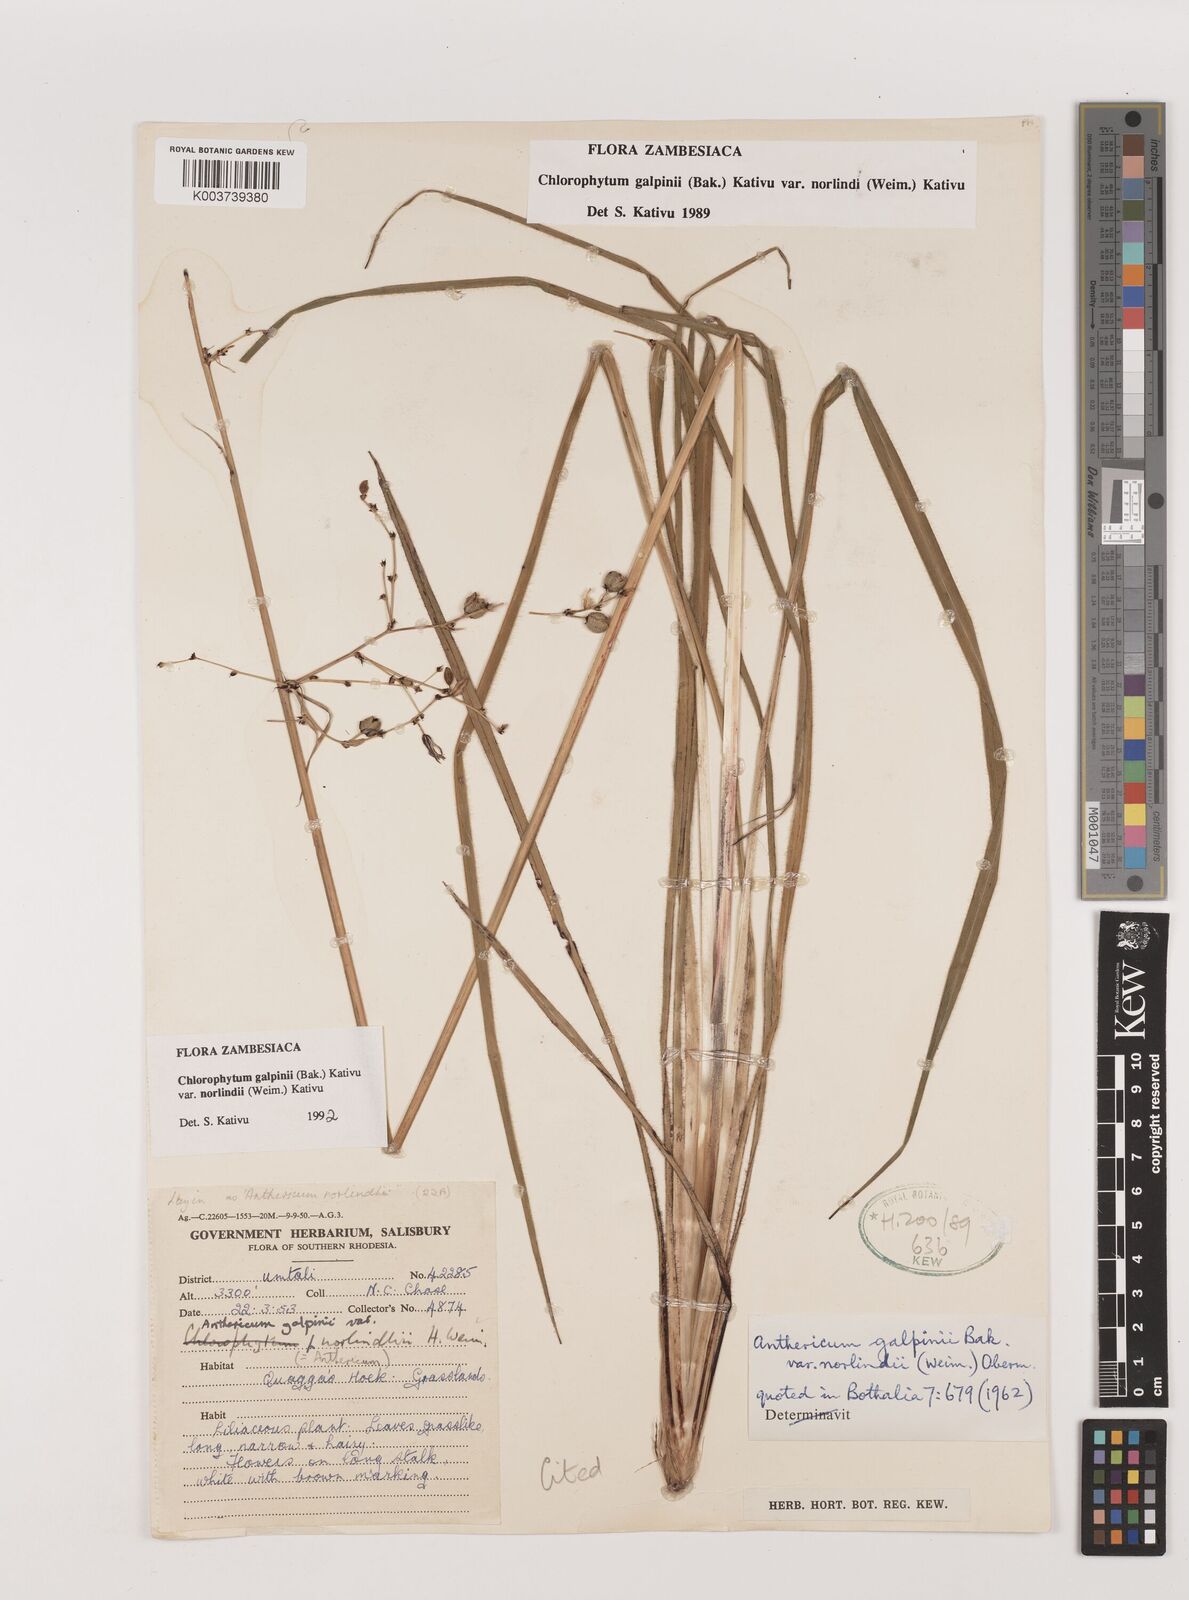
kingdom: Plantae
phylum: Tracheophyta
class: Liliopsida
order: Asparagales
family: Asparagaceae
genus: Chlorophytum
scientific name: Chlorophytum galpinii
